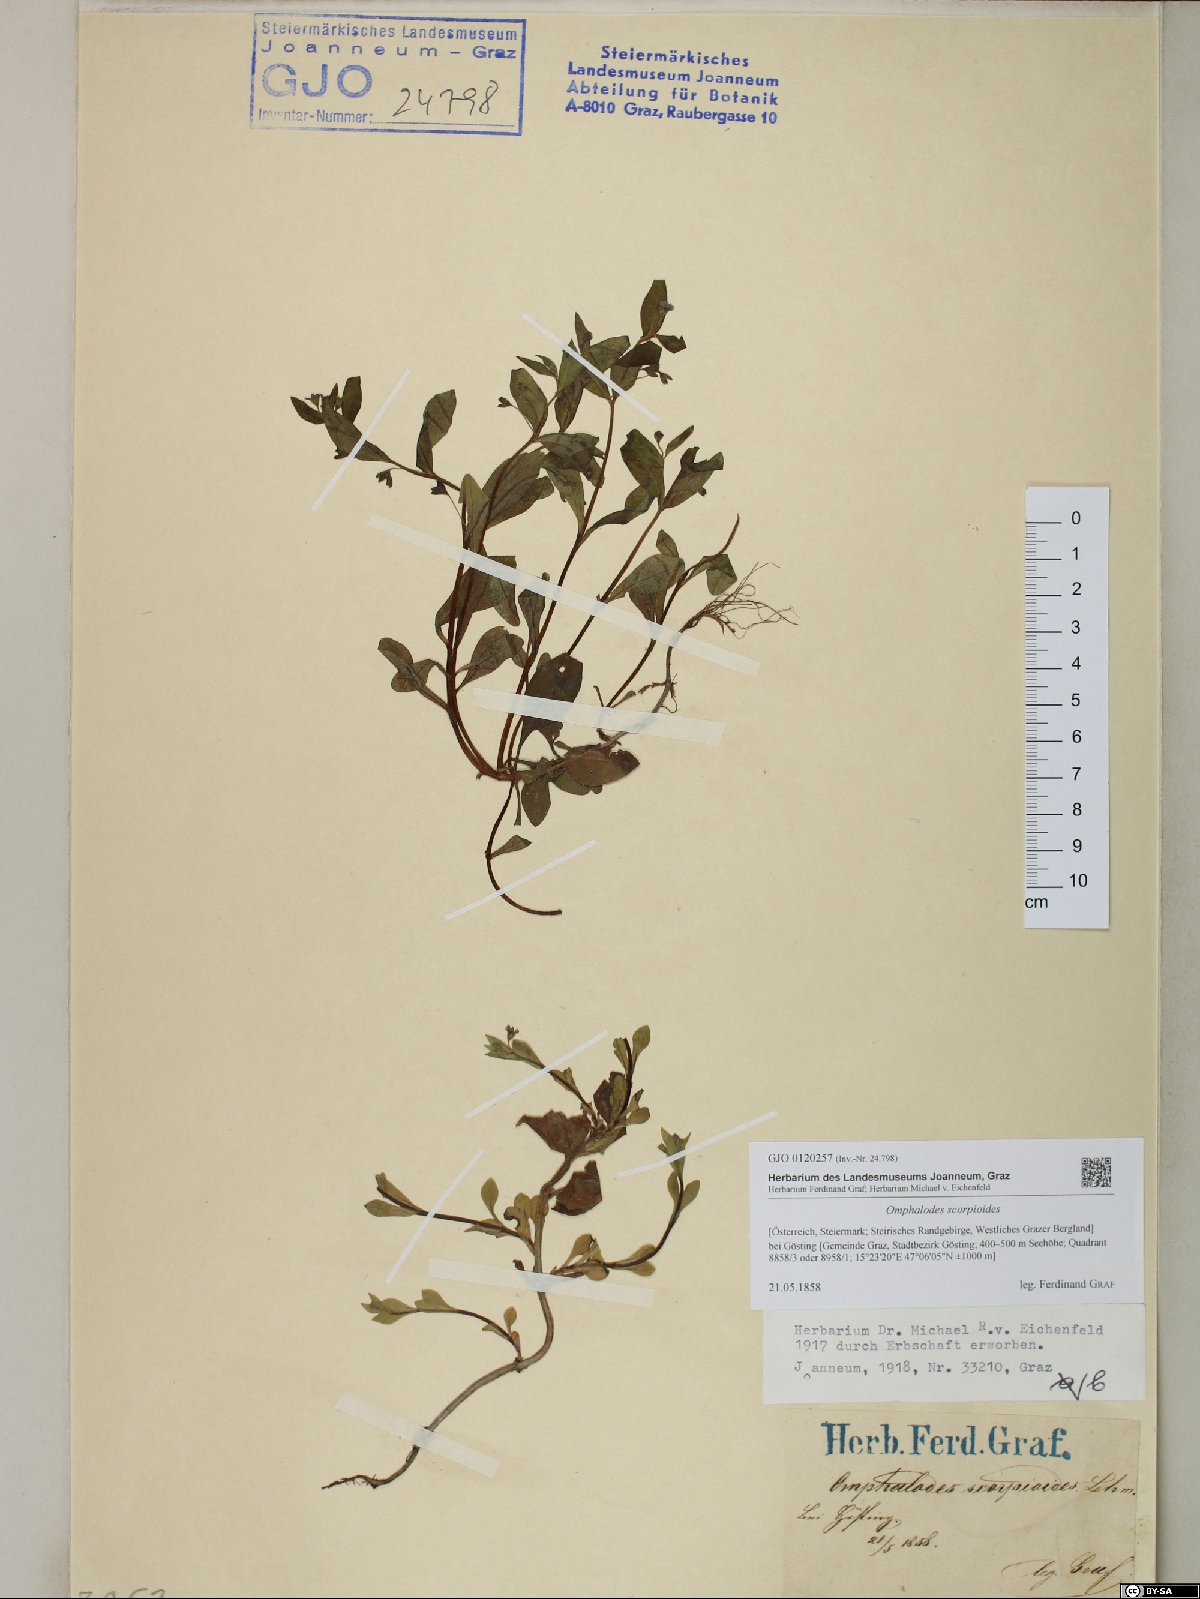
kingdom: Plantae
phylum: Tracheophyta
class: Magnoliopsida
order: Boraginales
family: Boraginaceae
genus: Memoremea
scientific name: Memoremea scorpioides
